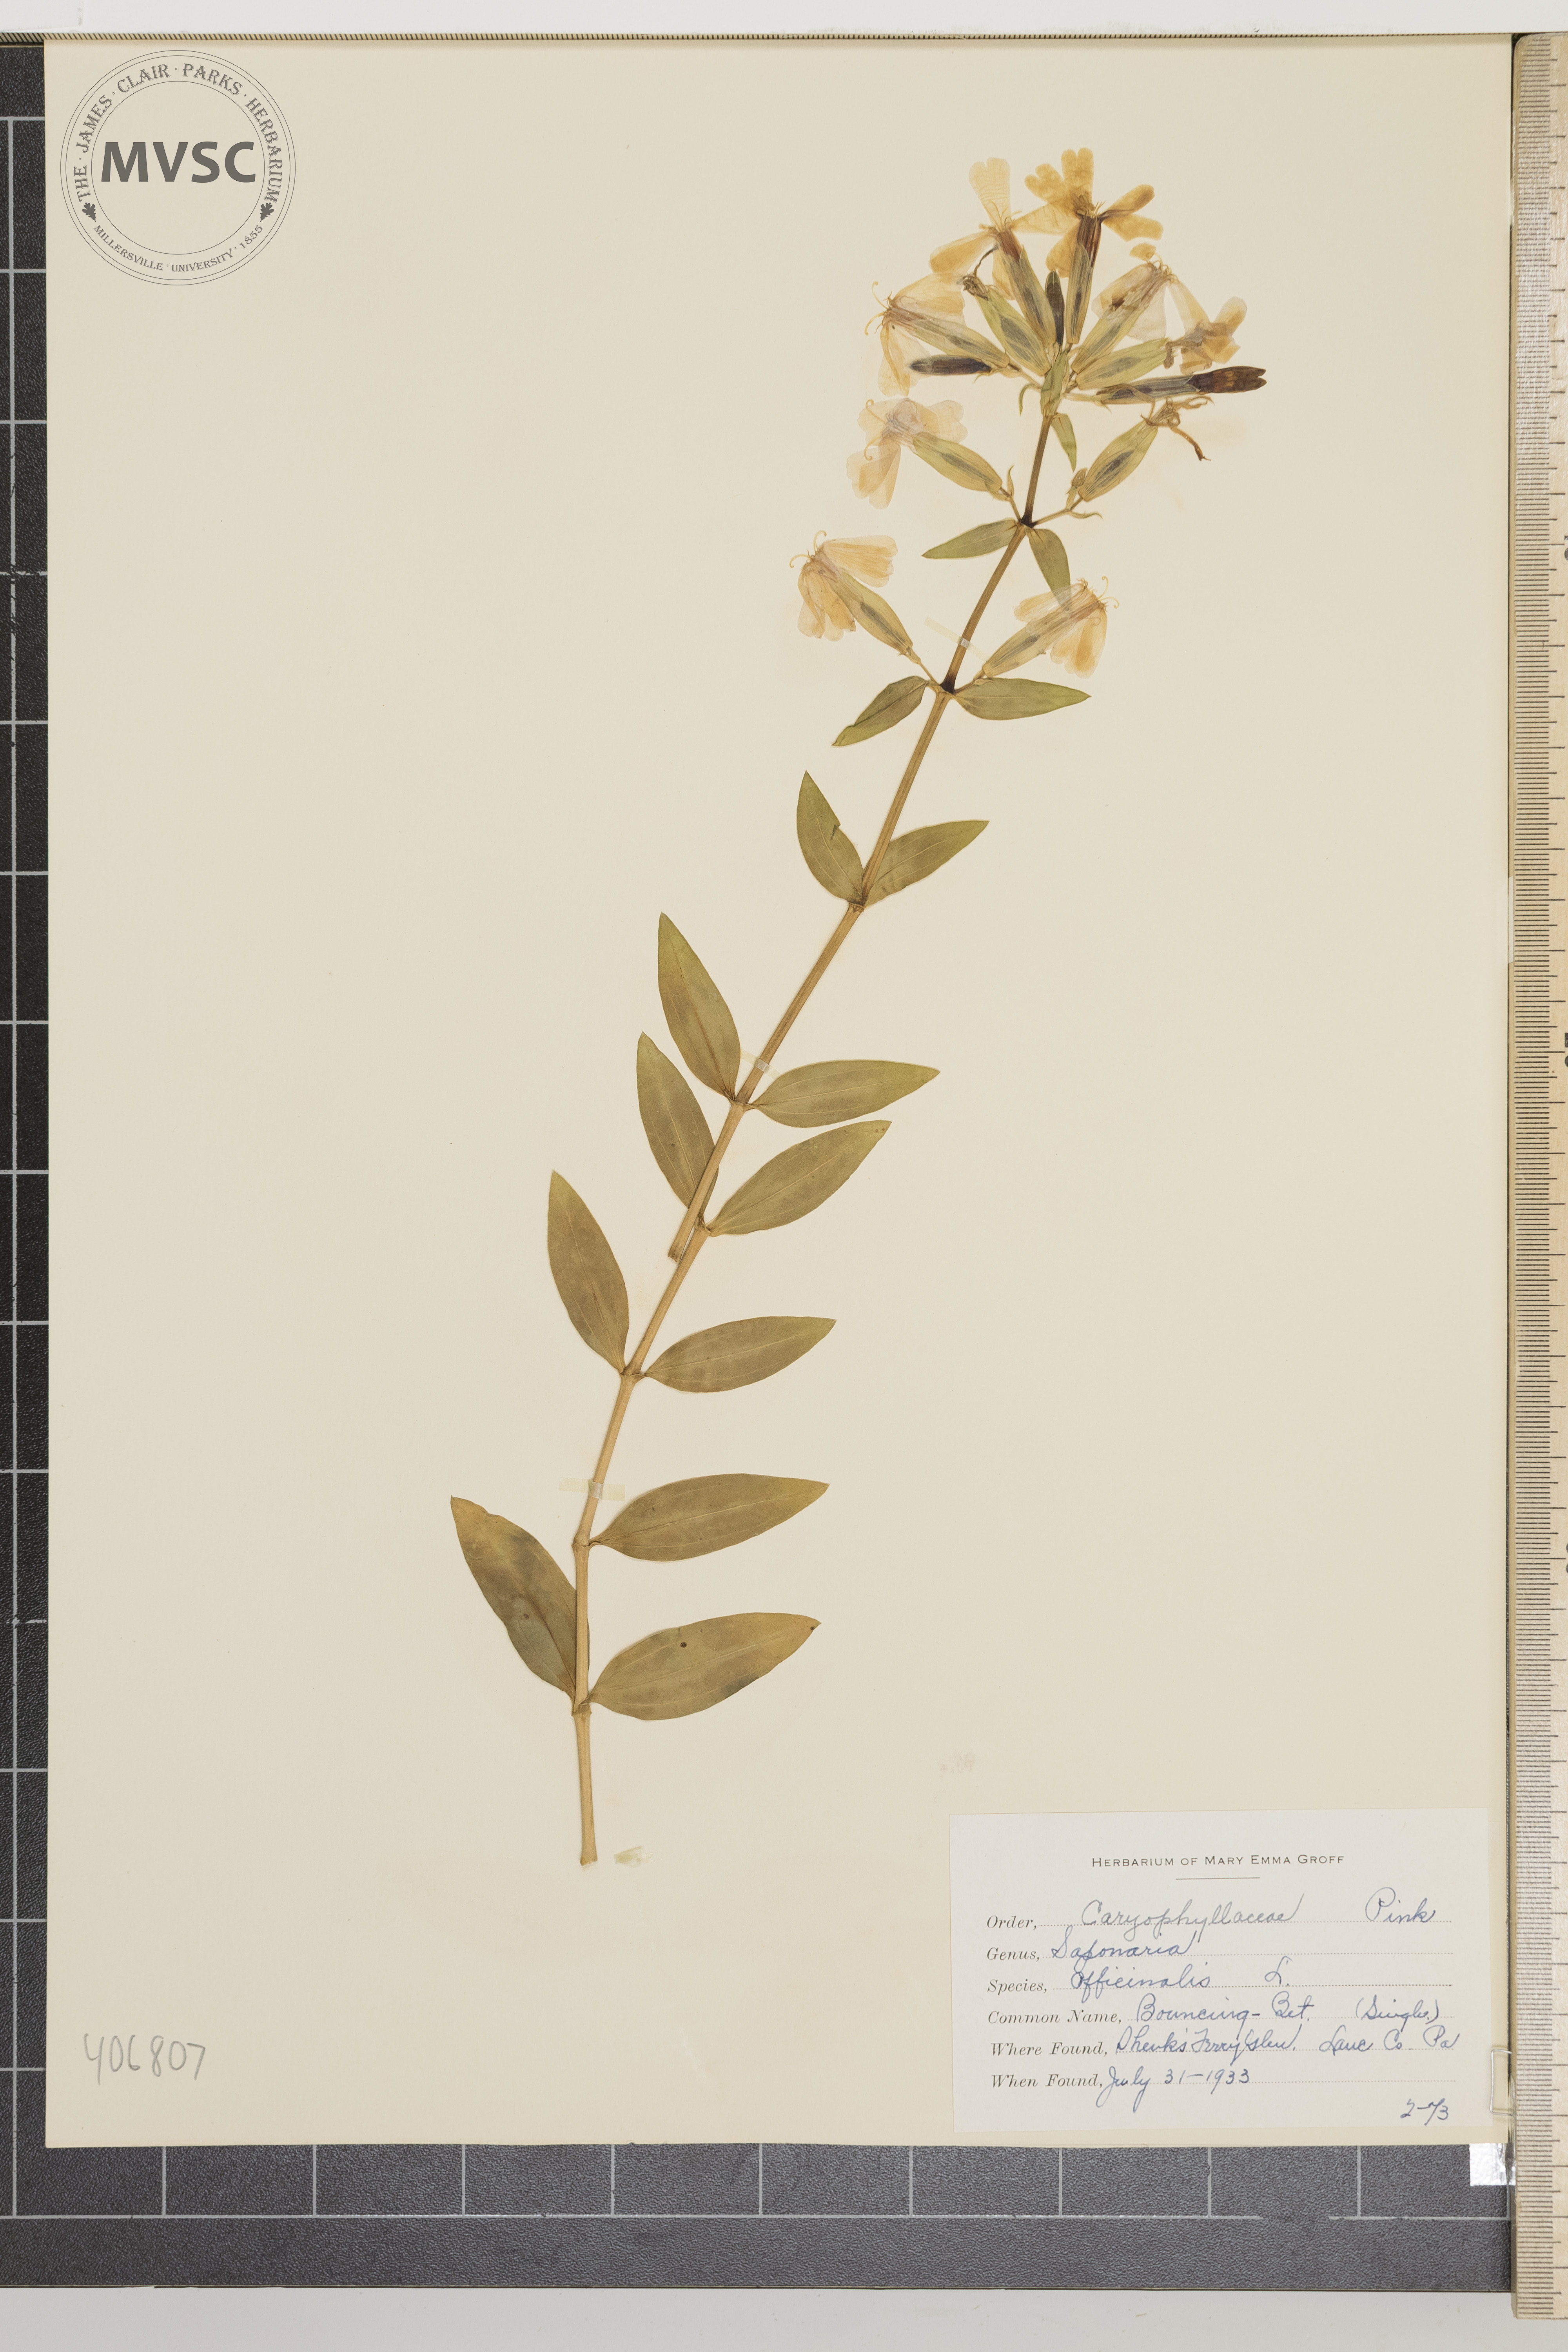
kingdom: Plantae
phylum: Tracheophyta
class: Magnoliopsida
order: Caryophyllales
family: Caryophyllaceae
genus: Saponaria
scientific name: Saponaria officinalis
